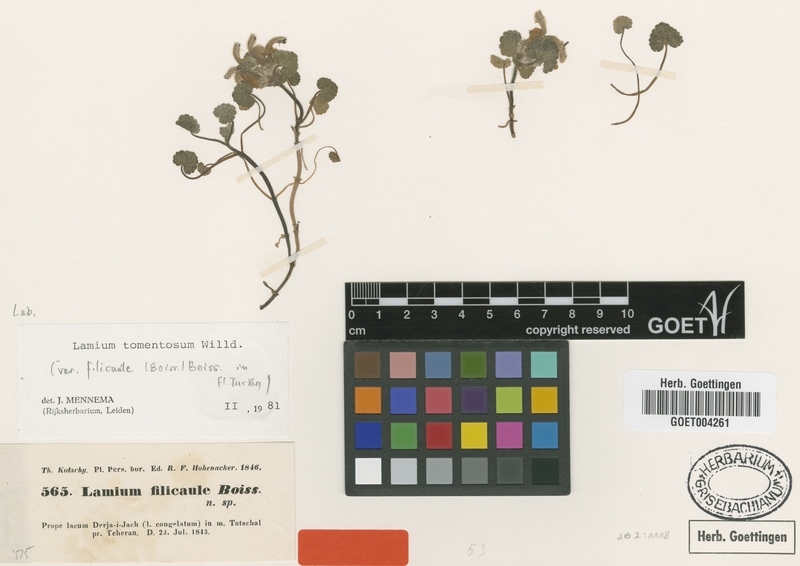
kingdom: Plantae
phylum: Tracheophyta
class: Magnoliopsida
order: Lamiales
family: Lamiaceae
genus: Lamium
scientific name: Lamium tomentosum
